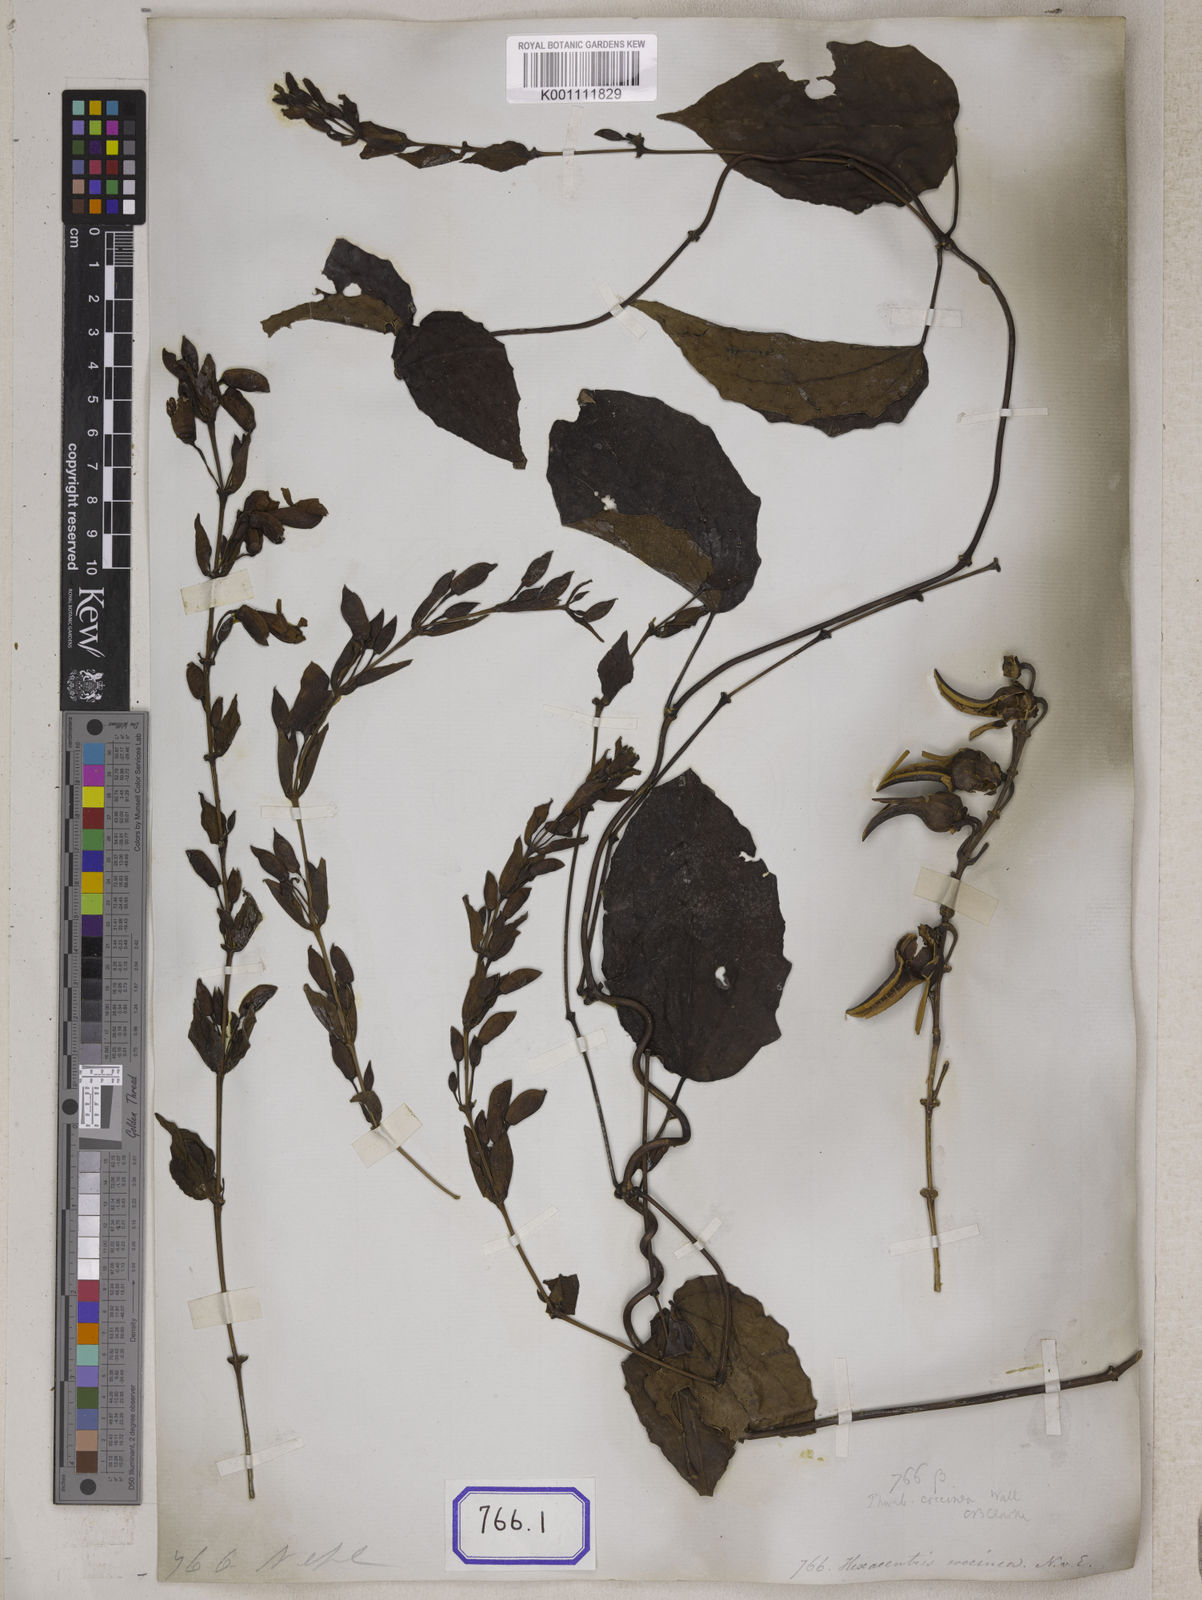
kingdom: Plantae
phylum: Tracheophyta
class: Magnoliopsida
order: Lamiales
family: Acanthaceae
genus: Thunbergia
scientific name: Thunbergia
